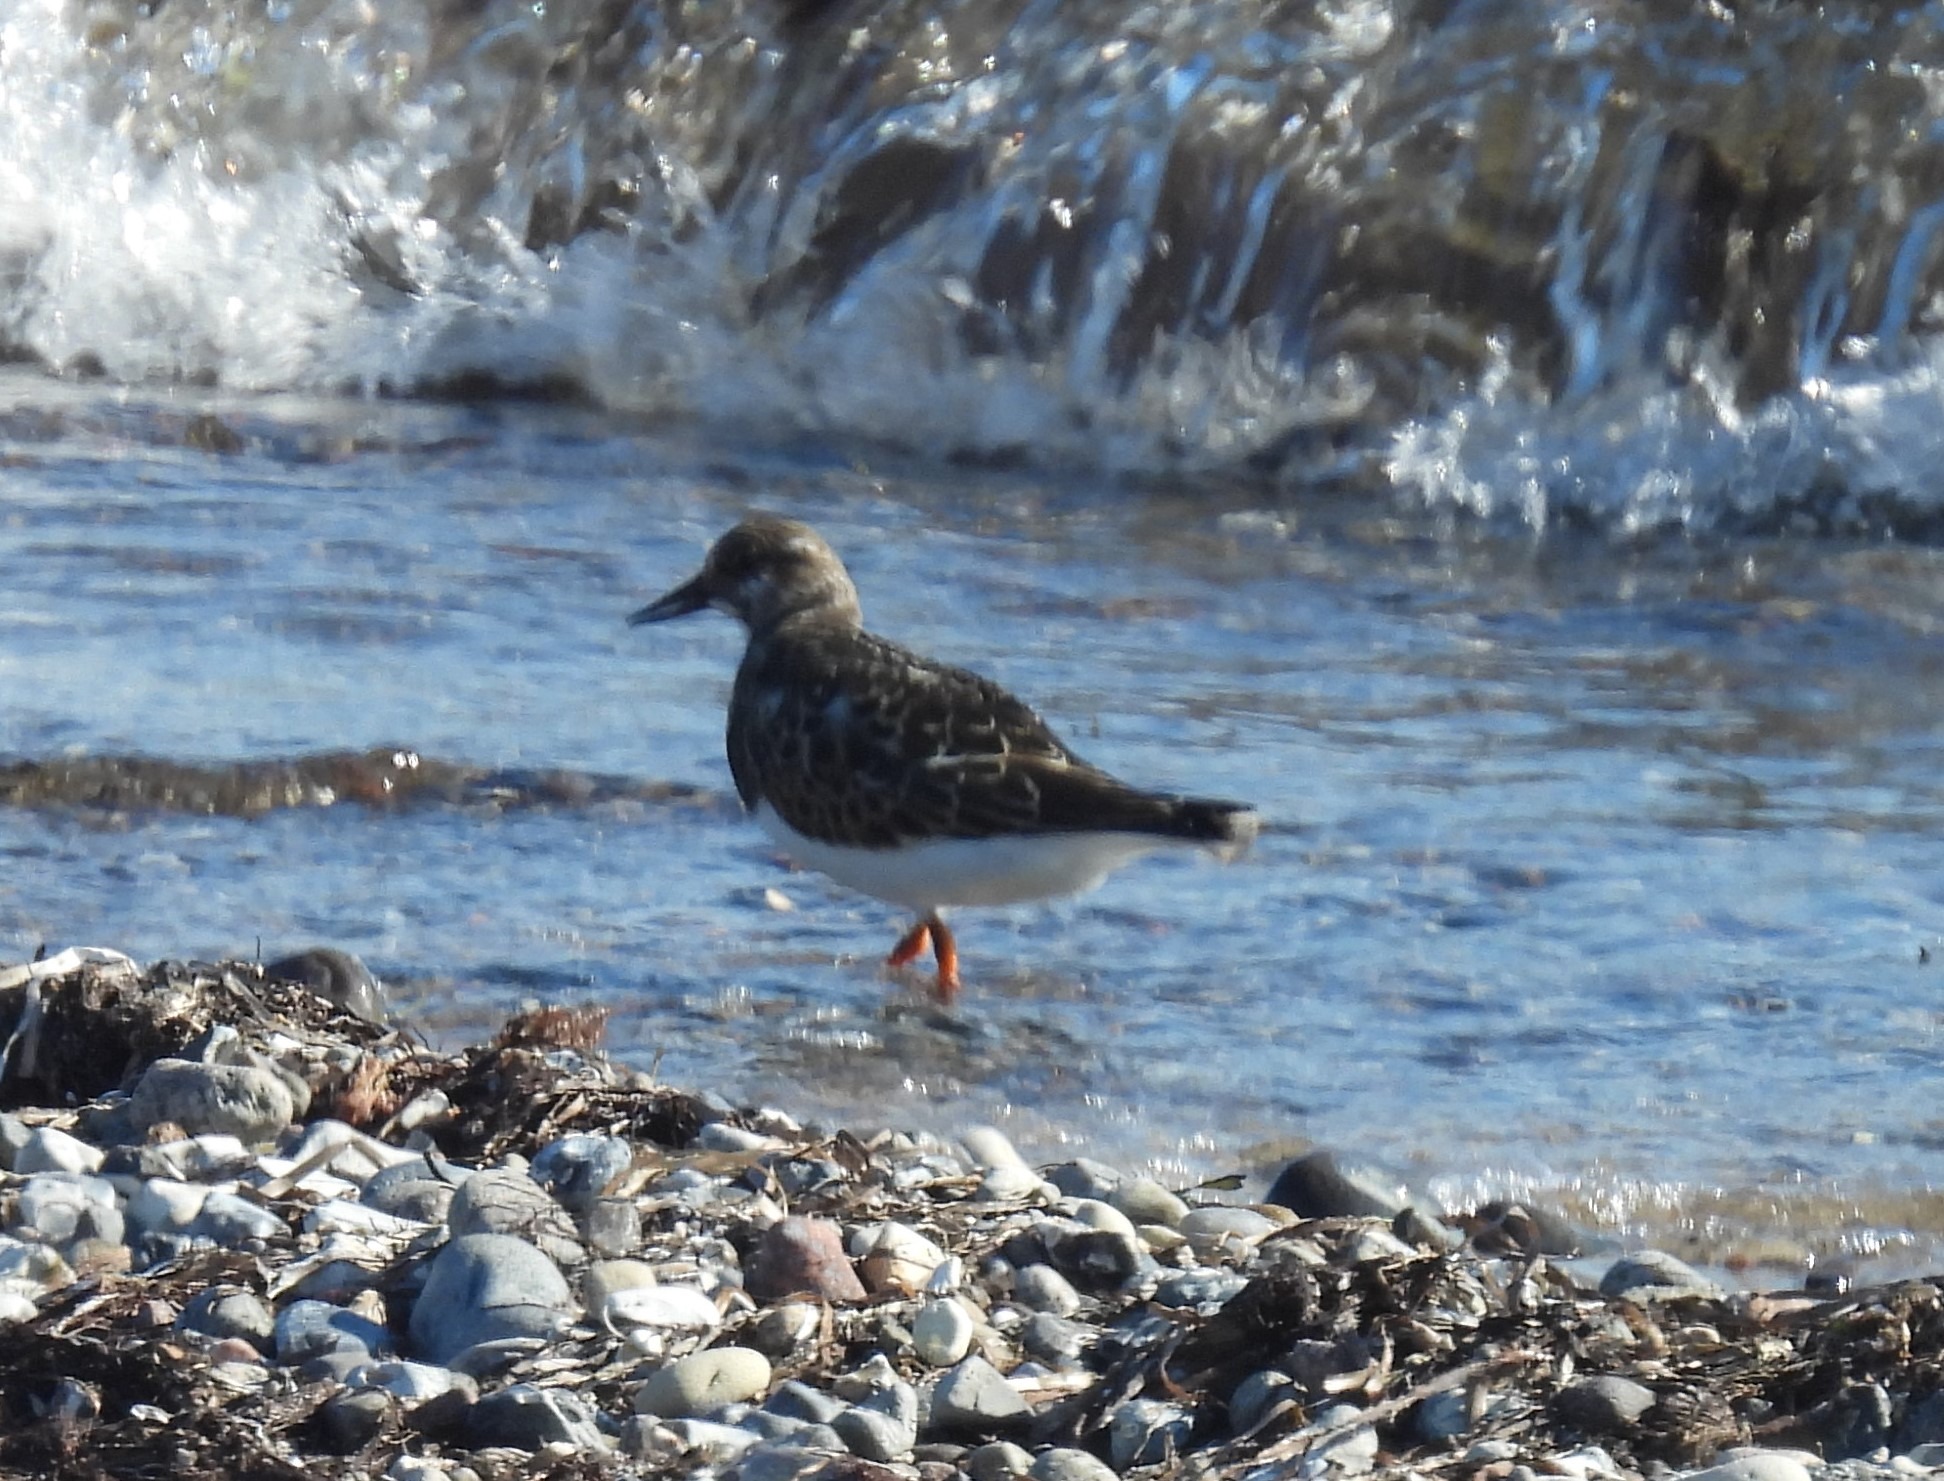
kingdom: Animalia
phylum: Chordata
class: Aves
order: Charadriiformes
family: Scolopacidae
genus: Arenaria
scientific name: Arenaria interpres
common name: Stenvender
